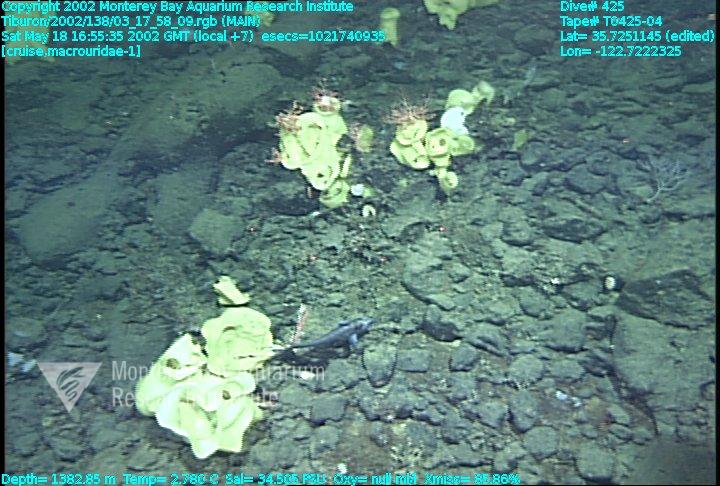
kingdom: Animalia
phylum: Porifera
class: Hexactinellida
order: Lyssacinosida
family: Rossellidae
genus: Staurocalyptus
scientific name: Staurocalyptus
